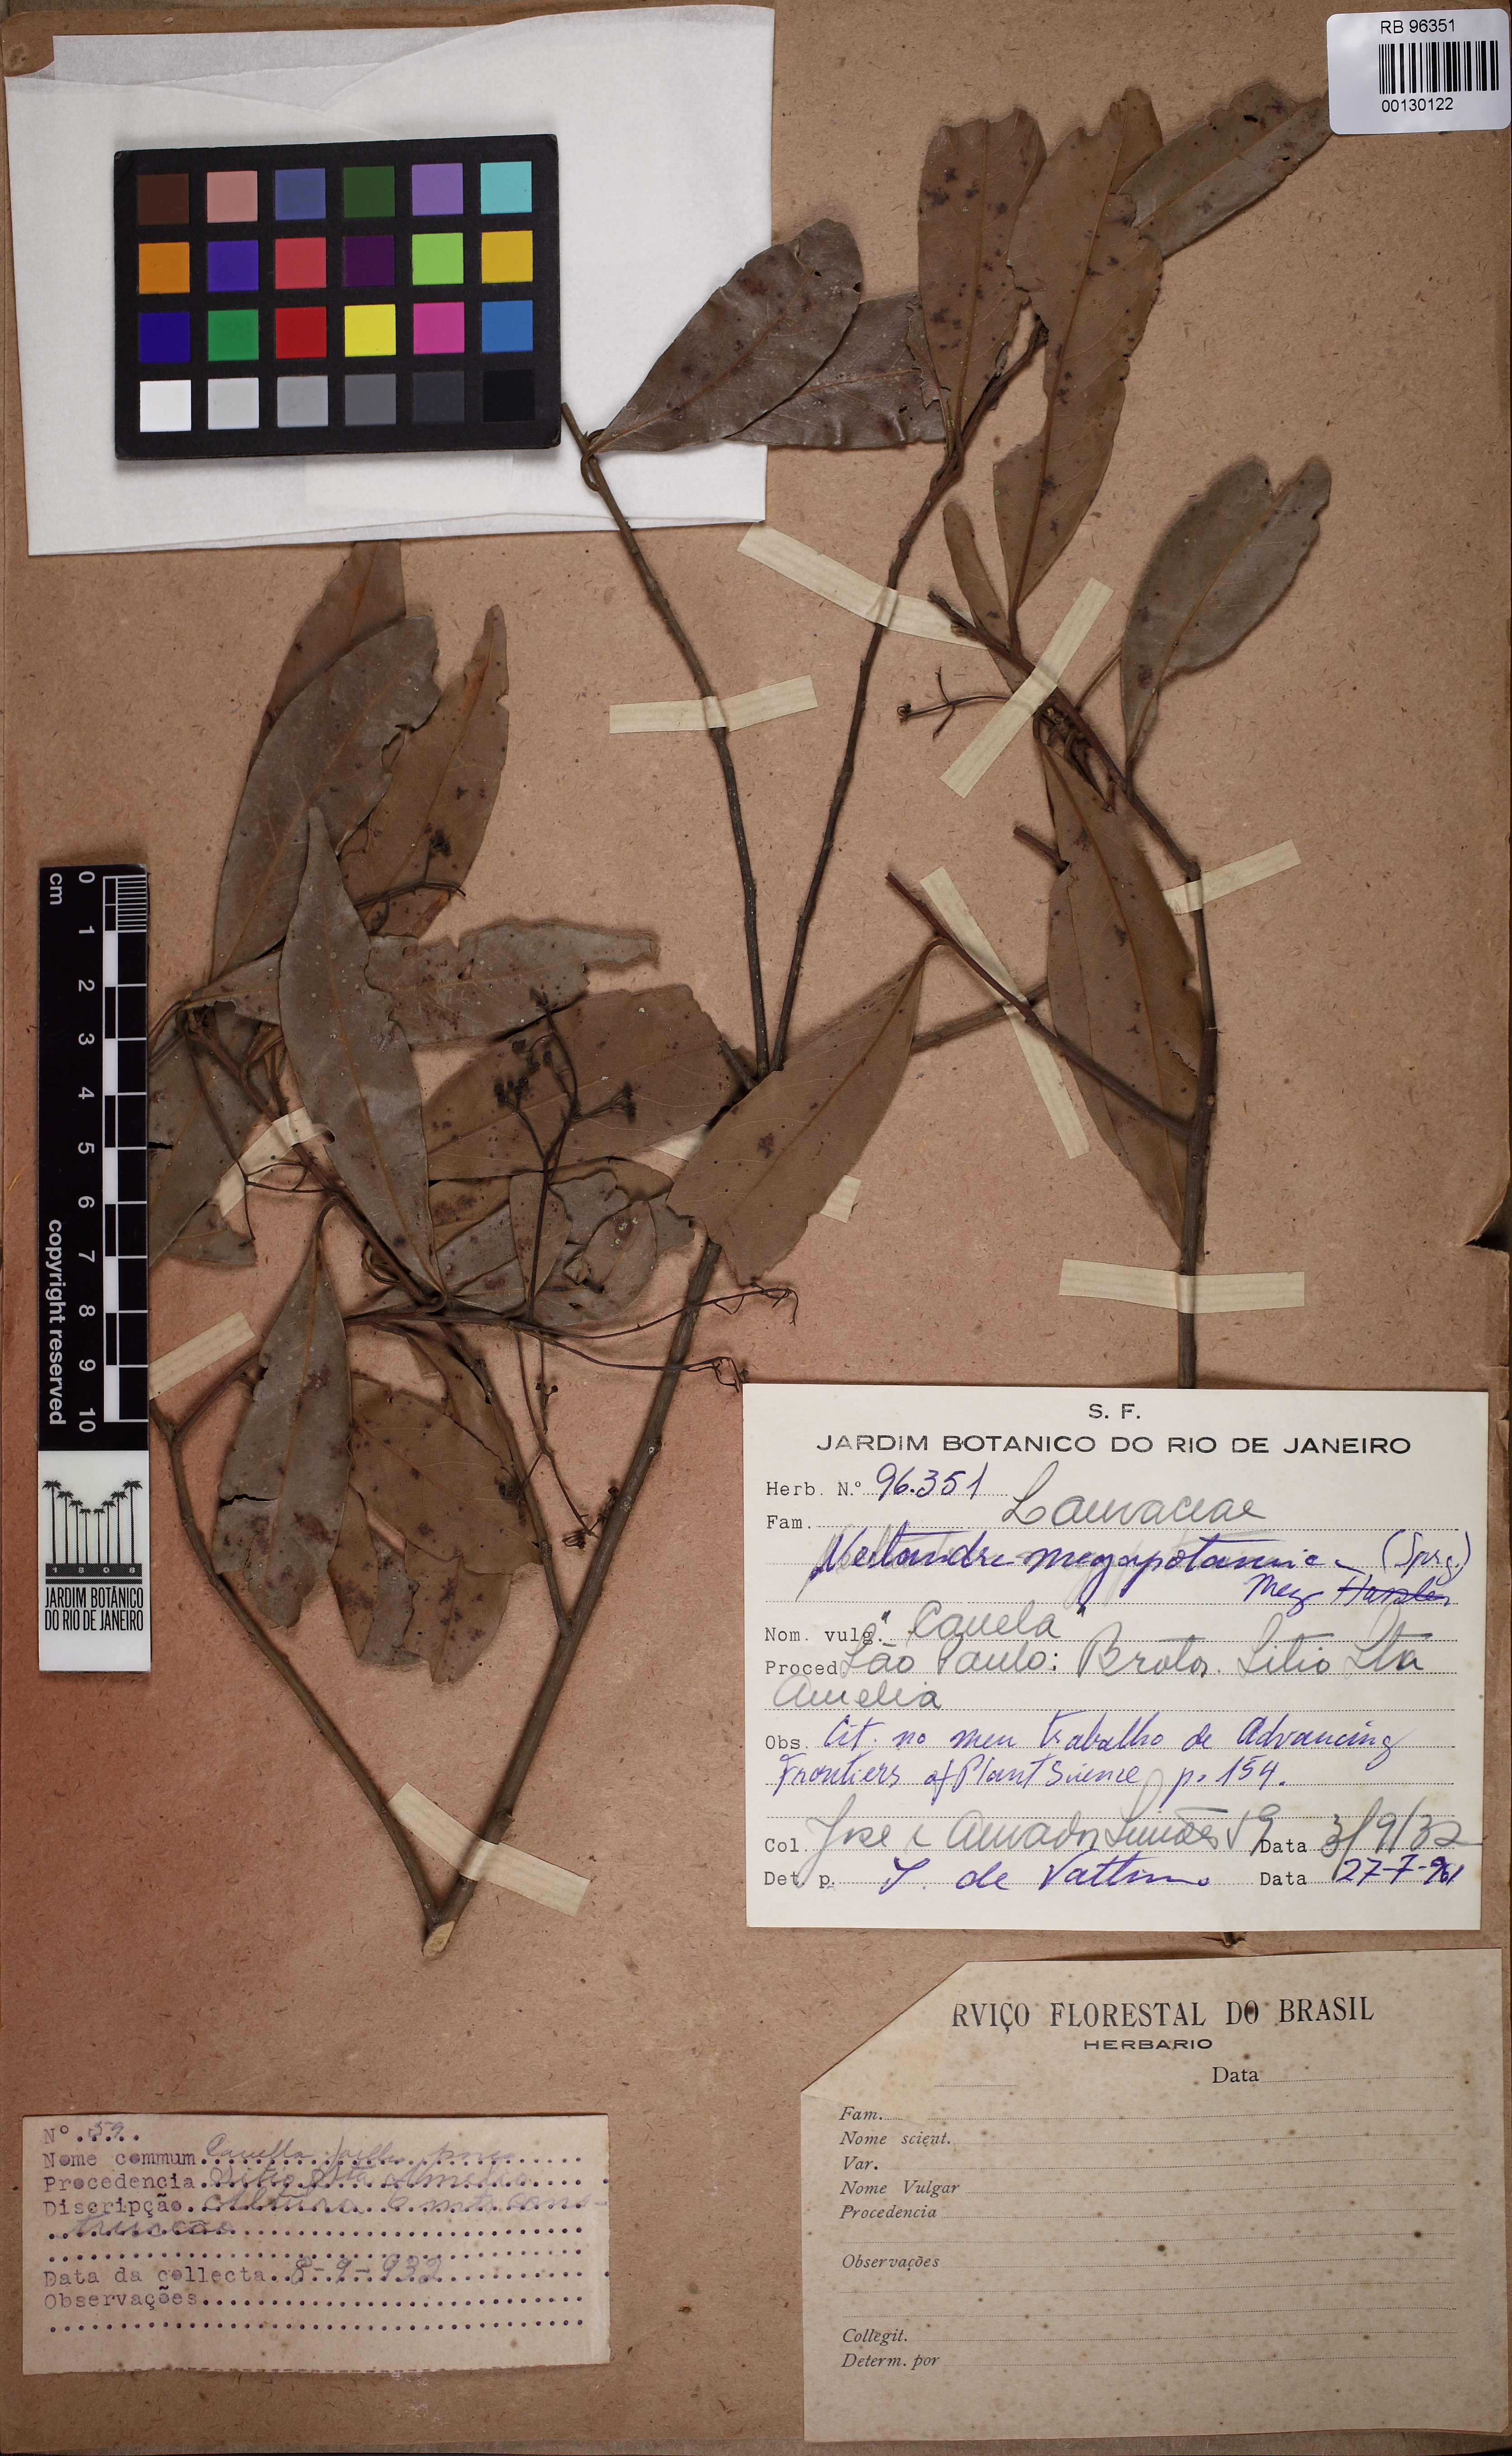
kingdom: Plantae
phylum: Tracheophyta
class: Magnoliopsida
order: Laurales
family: Lauraceae
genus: Nectandra
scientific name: Nectandra megapotamica
